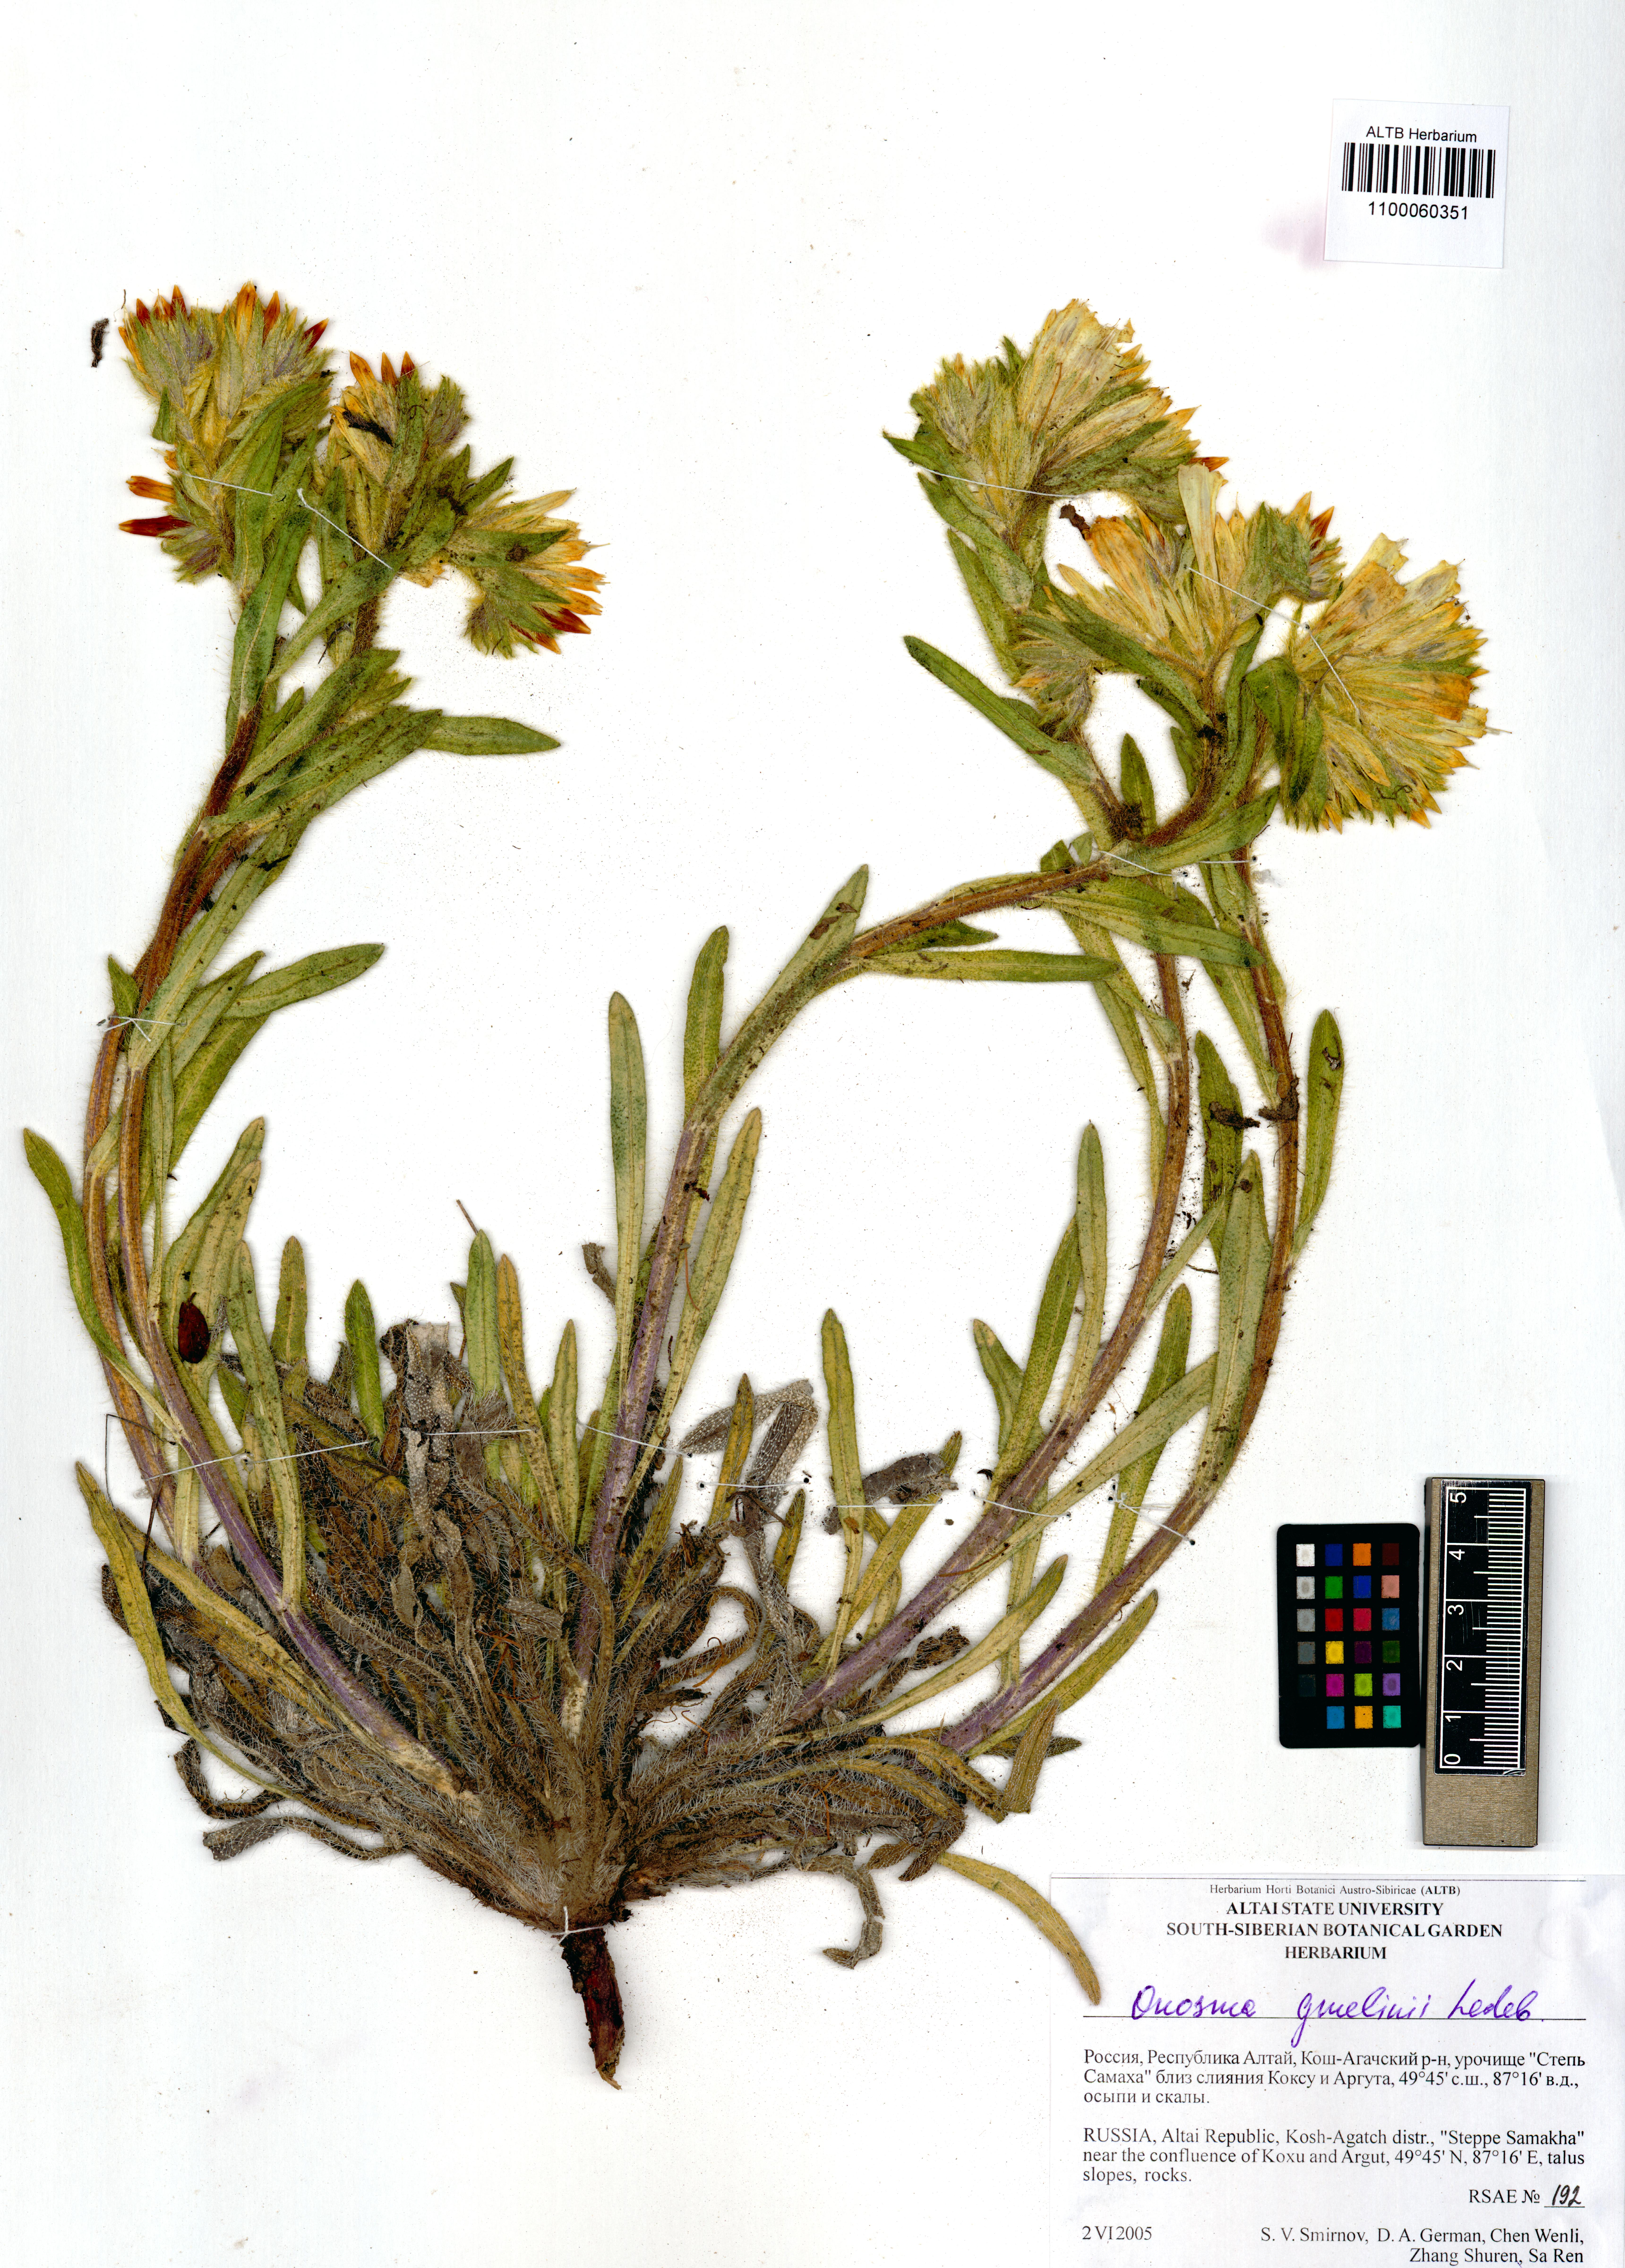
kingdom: Plantae
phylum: Tracheophyta
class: Magnoliopsida
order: Boraginales
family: Boraginaceae
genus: Onosma
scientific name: Onosma gmelinii
